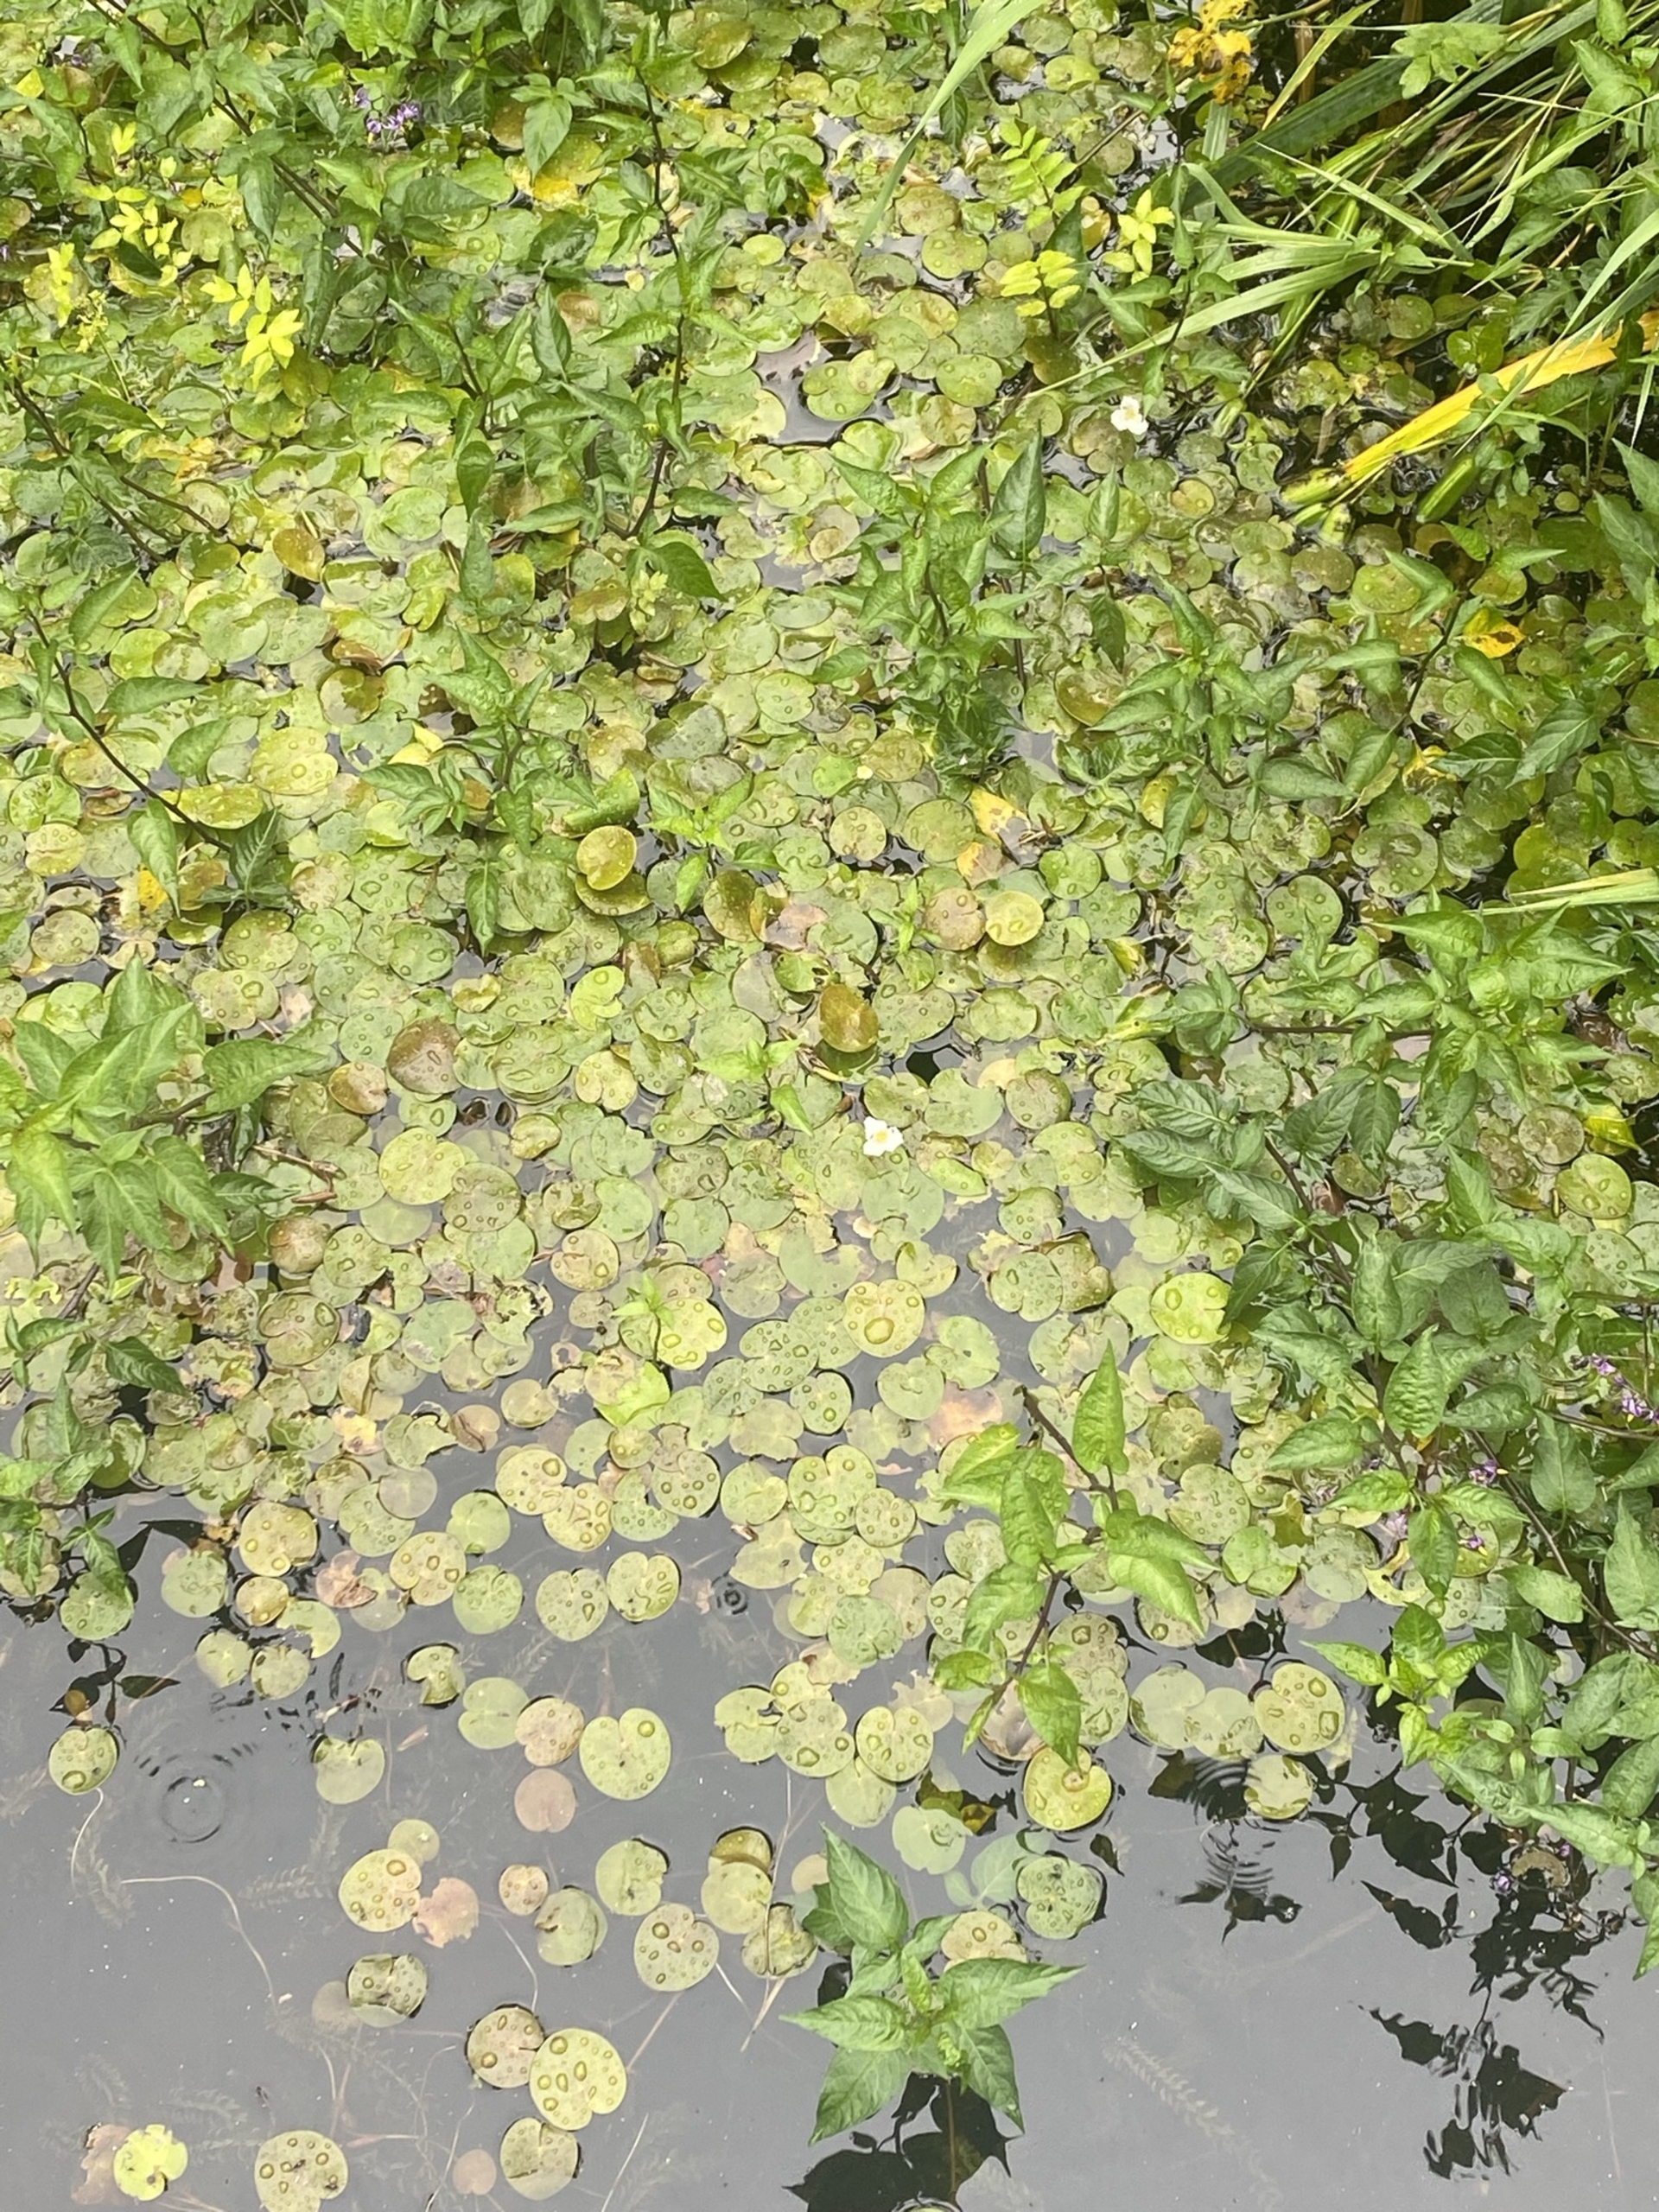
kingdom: Plantae
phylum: Tracheophyta
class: Liliopsida
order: Alismatales
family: Hydrocharitaceae
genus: Hydrocharis
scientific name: Hydrocharis morsus-ranae
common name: Frøbid
